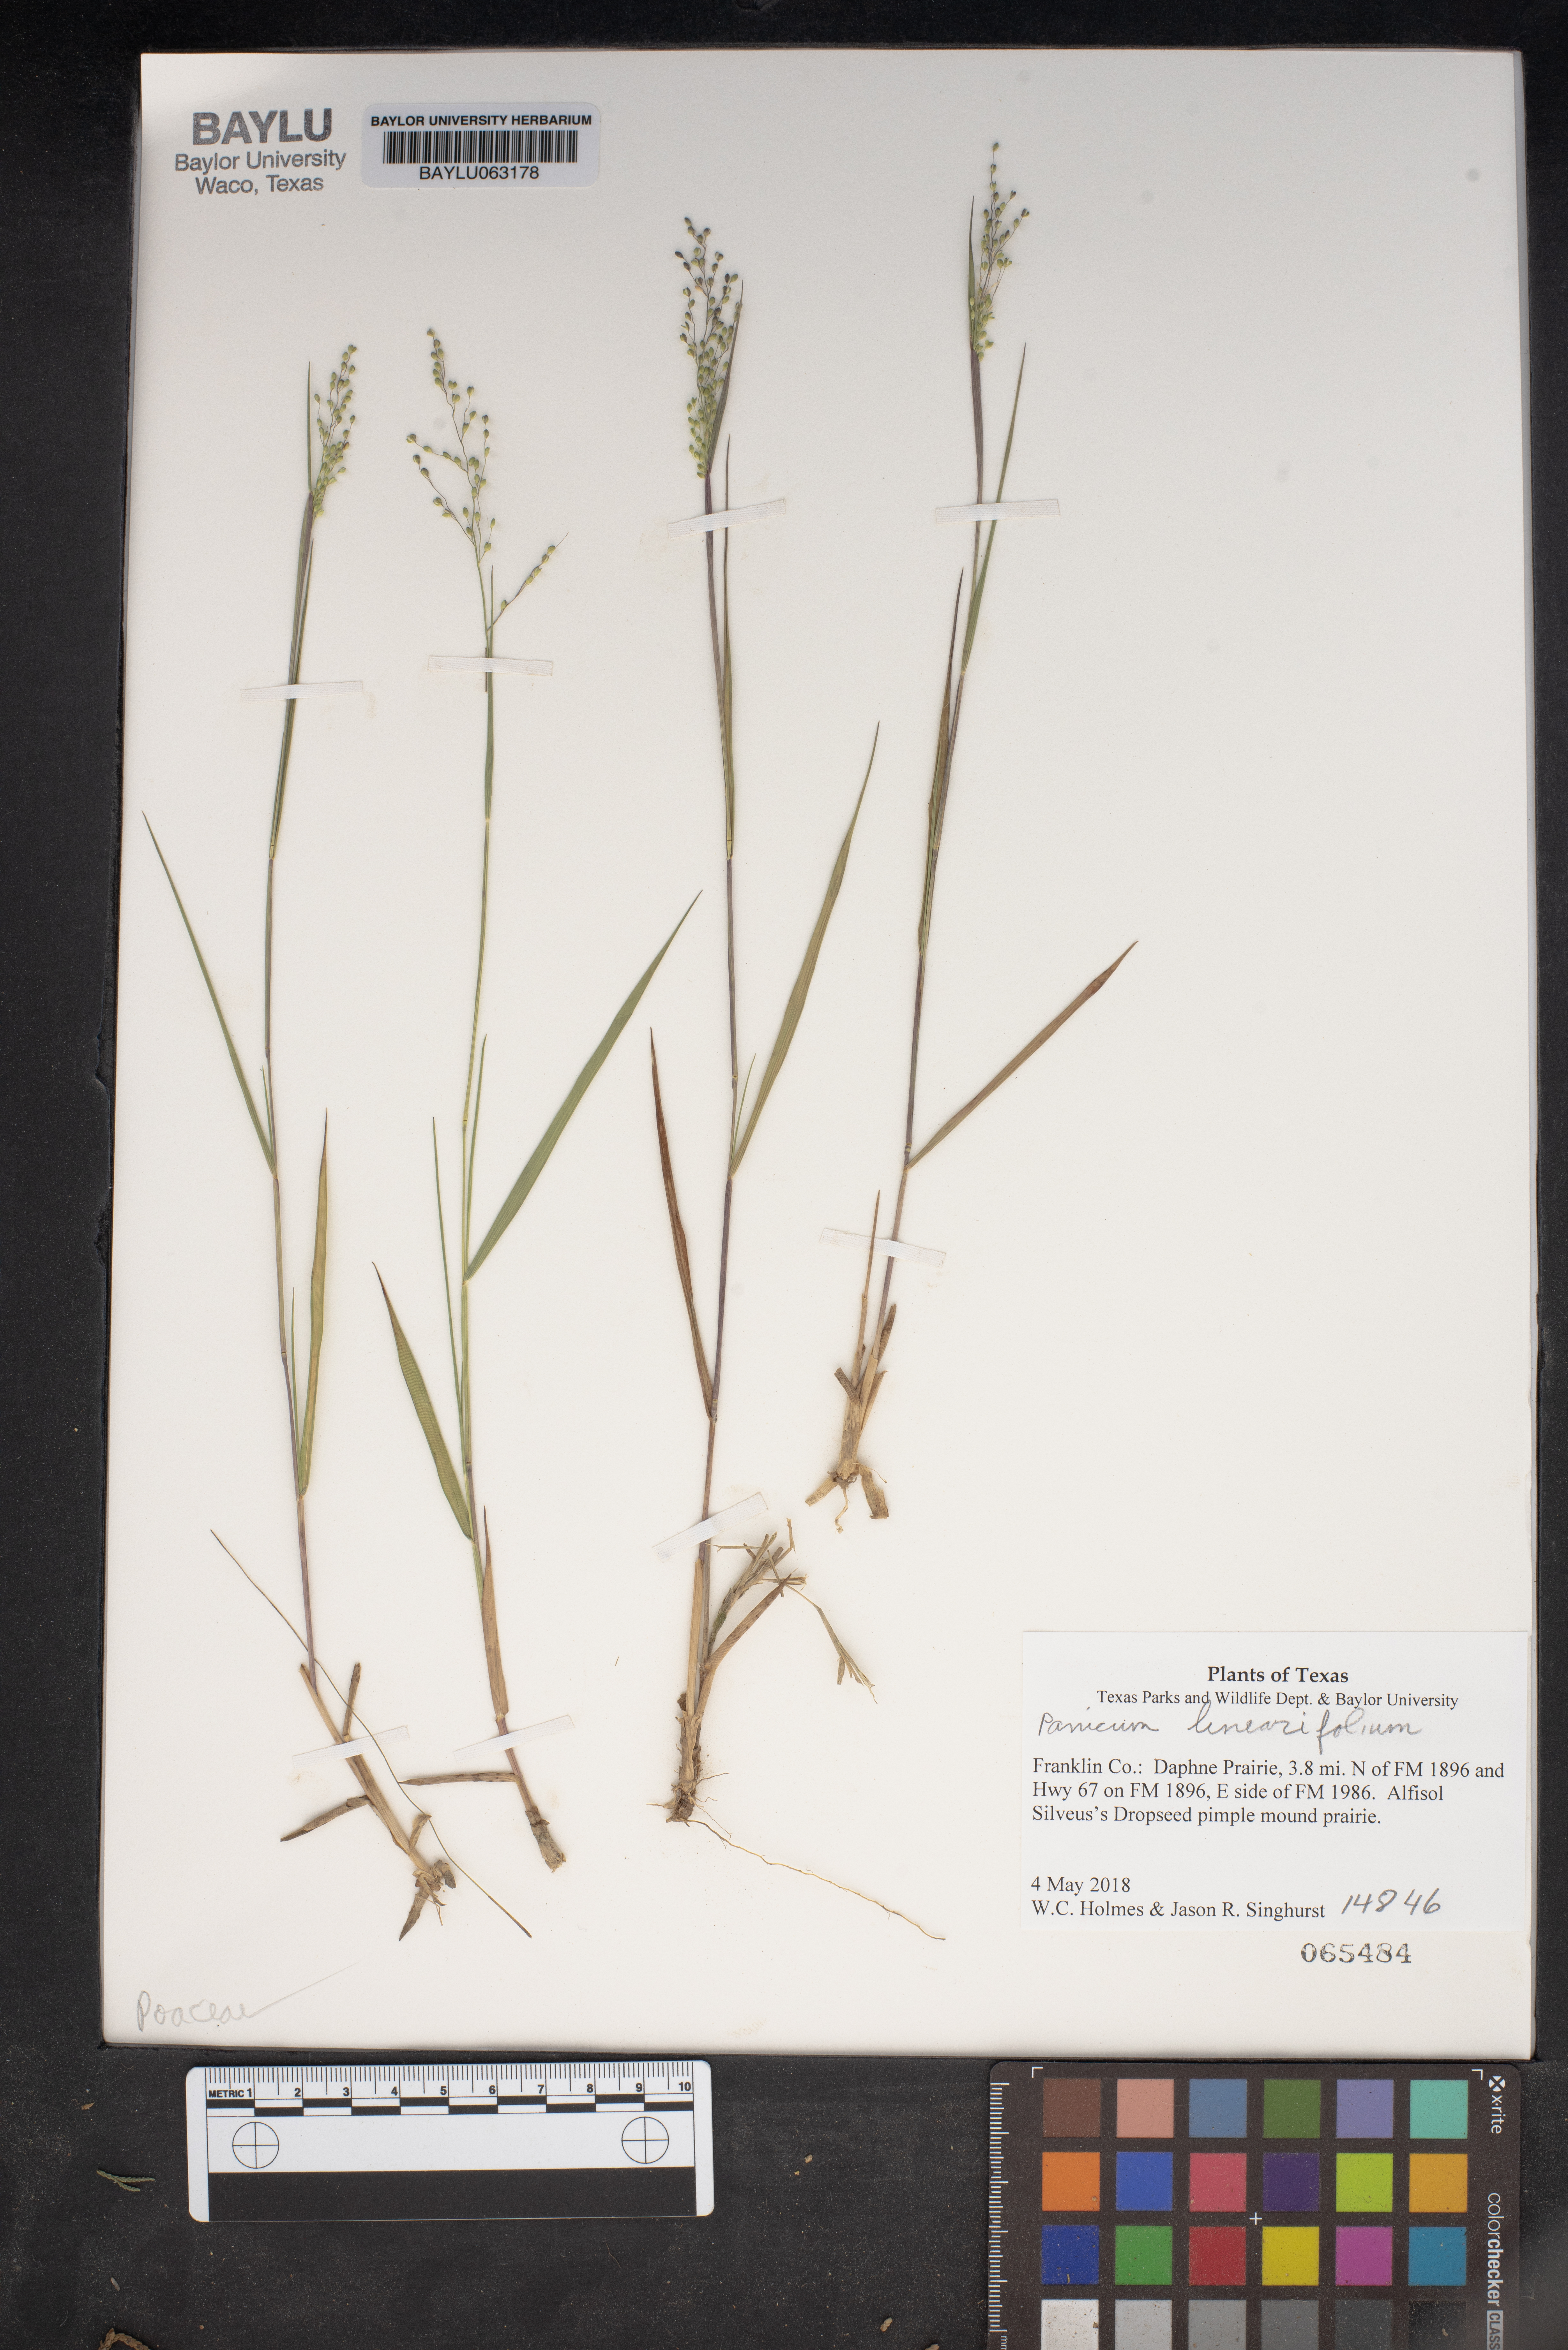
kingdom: Plantae
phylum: Tracheophyta
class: Liliopsida
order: Poales
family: Poaceae
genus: Dichanthelium
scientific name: Dichanthelium linearifolium
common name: Linear-leaved panicgrass
